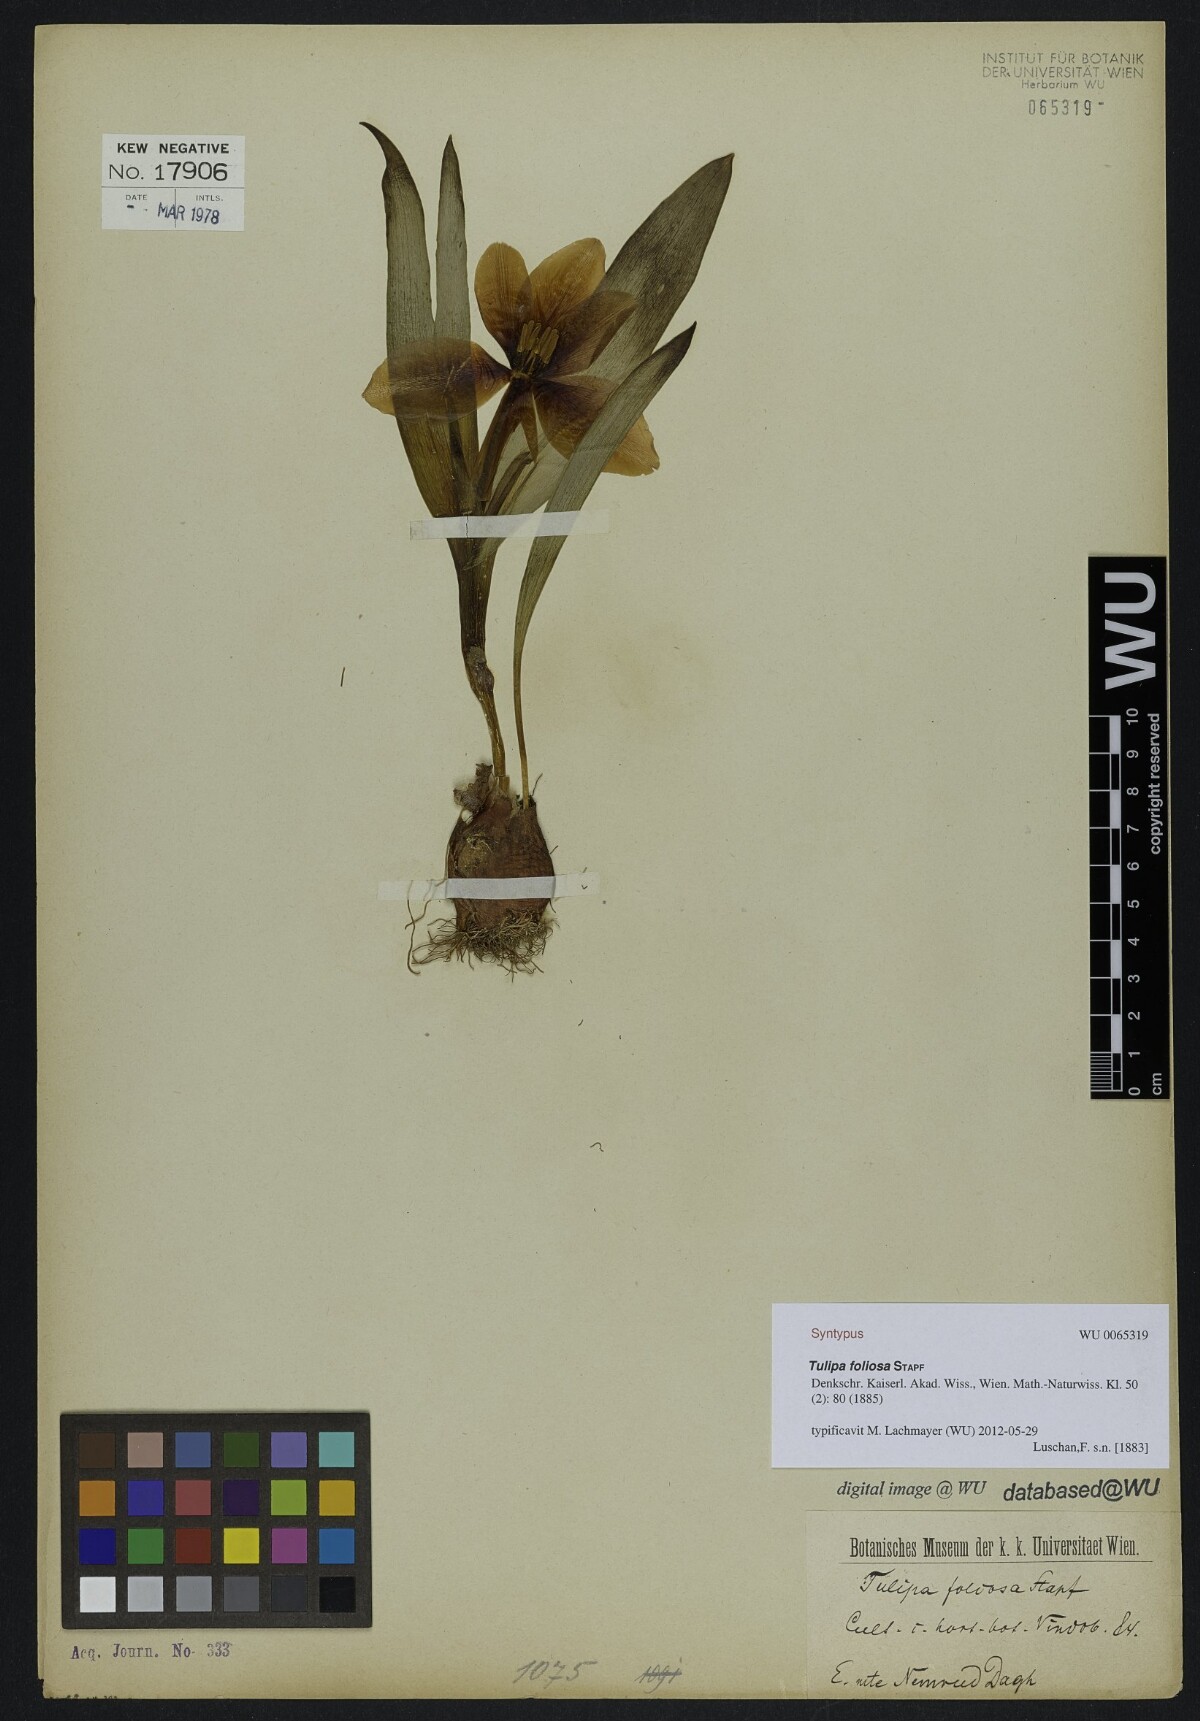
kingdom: Plantae
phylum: Tracheophyta
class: Liliopsida
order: Liliales
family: Liliaceae
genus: Tulipa
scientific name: Tulipa foliosa
